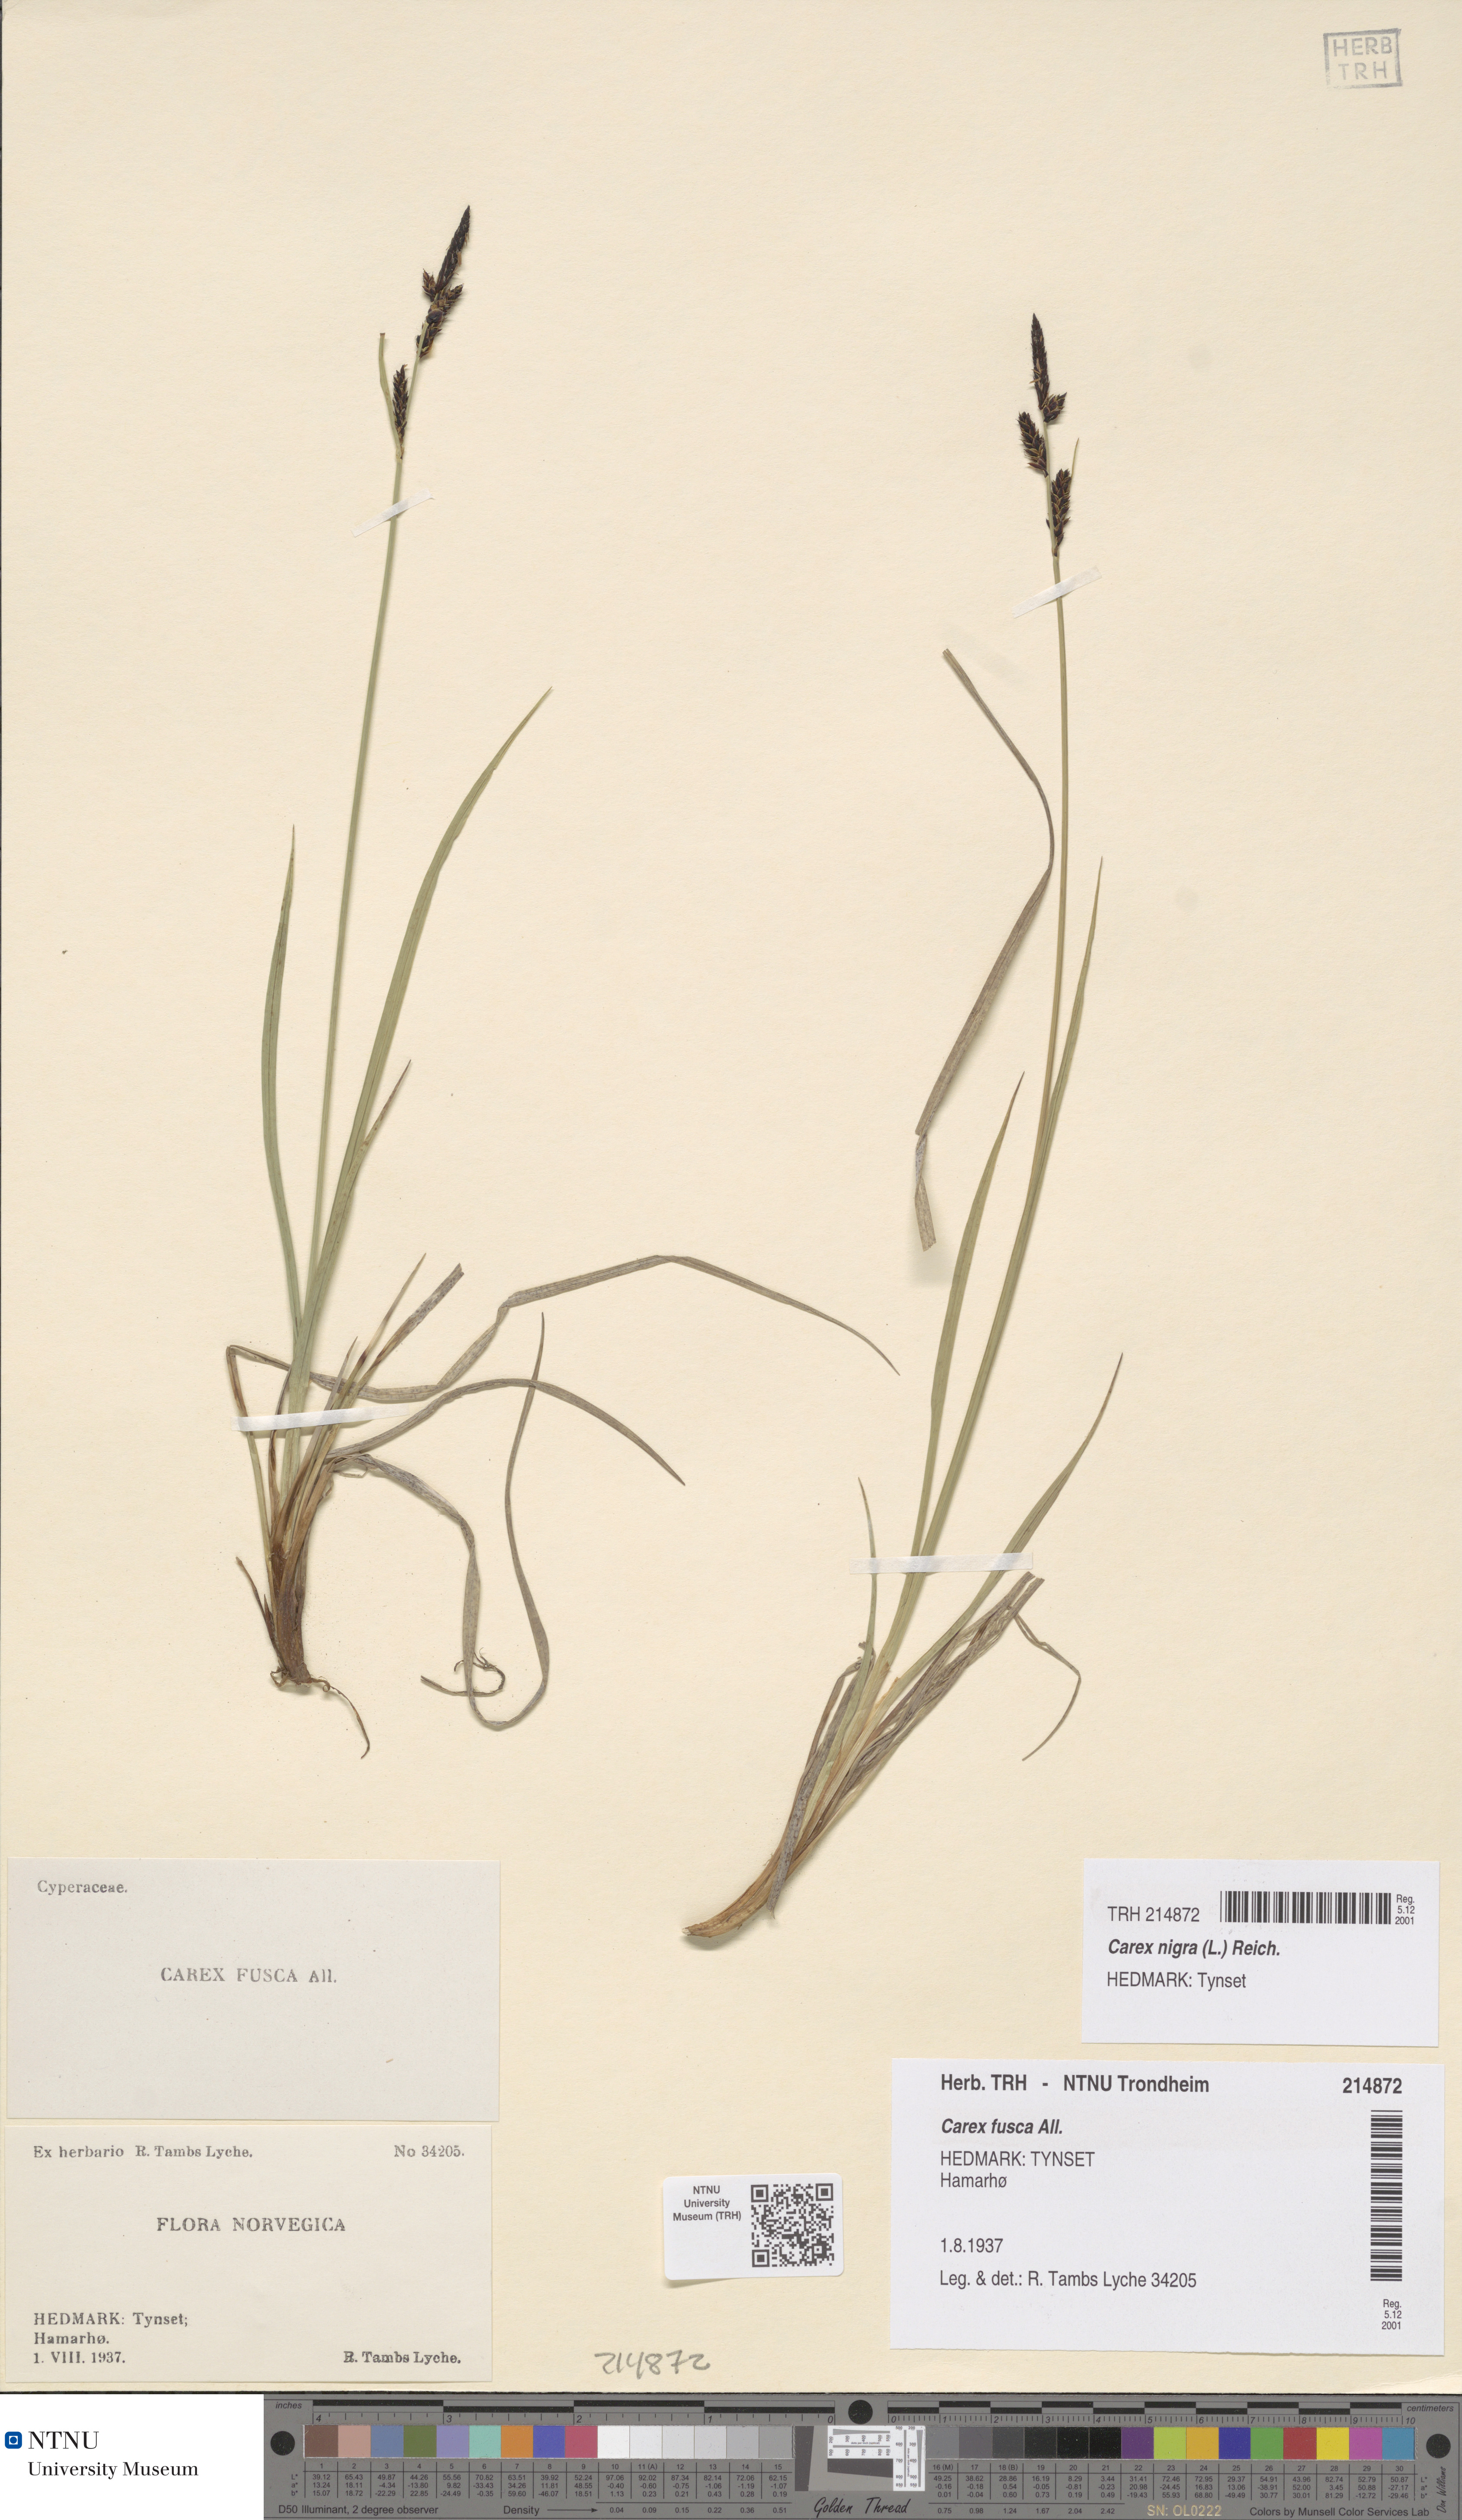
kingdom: Plantae
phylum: Tracheophyta
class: Liliopsida
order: Poales
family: Cyperaceae
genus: Carex
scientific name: Carex nigra
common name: Common sedge
